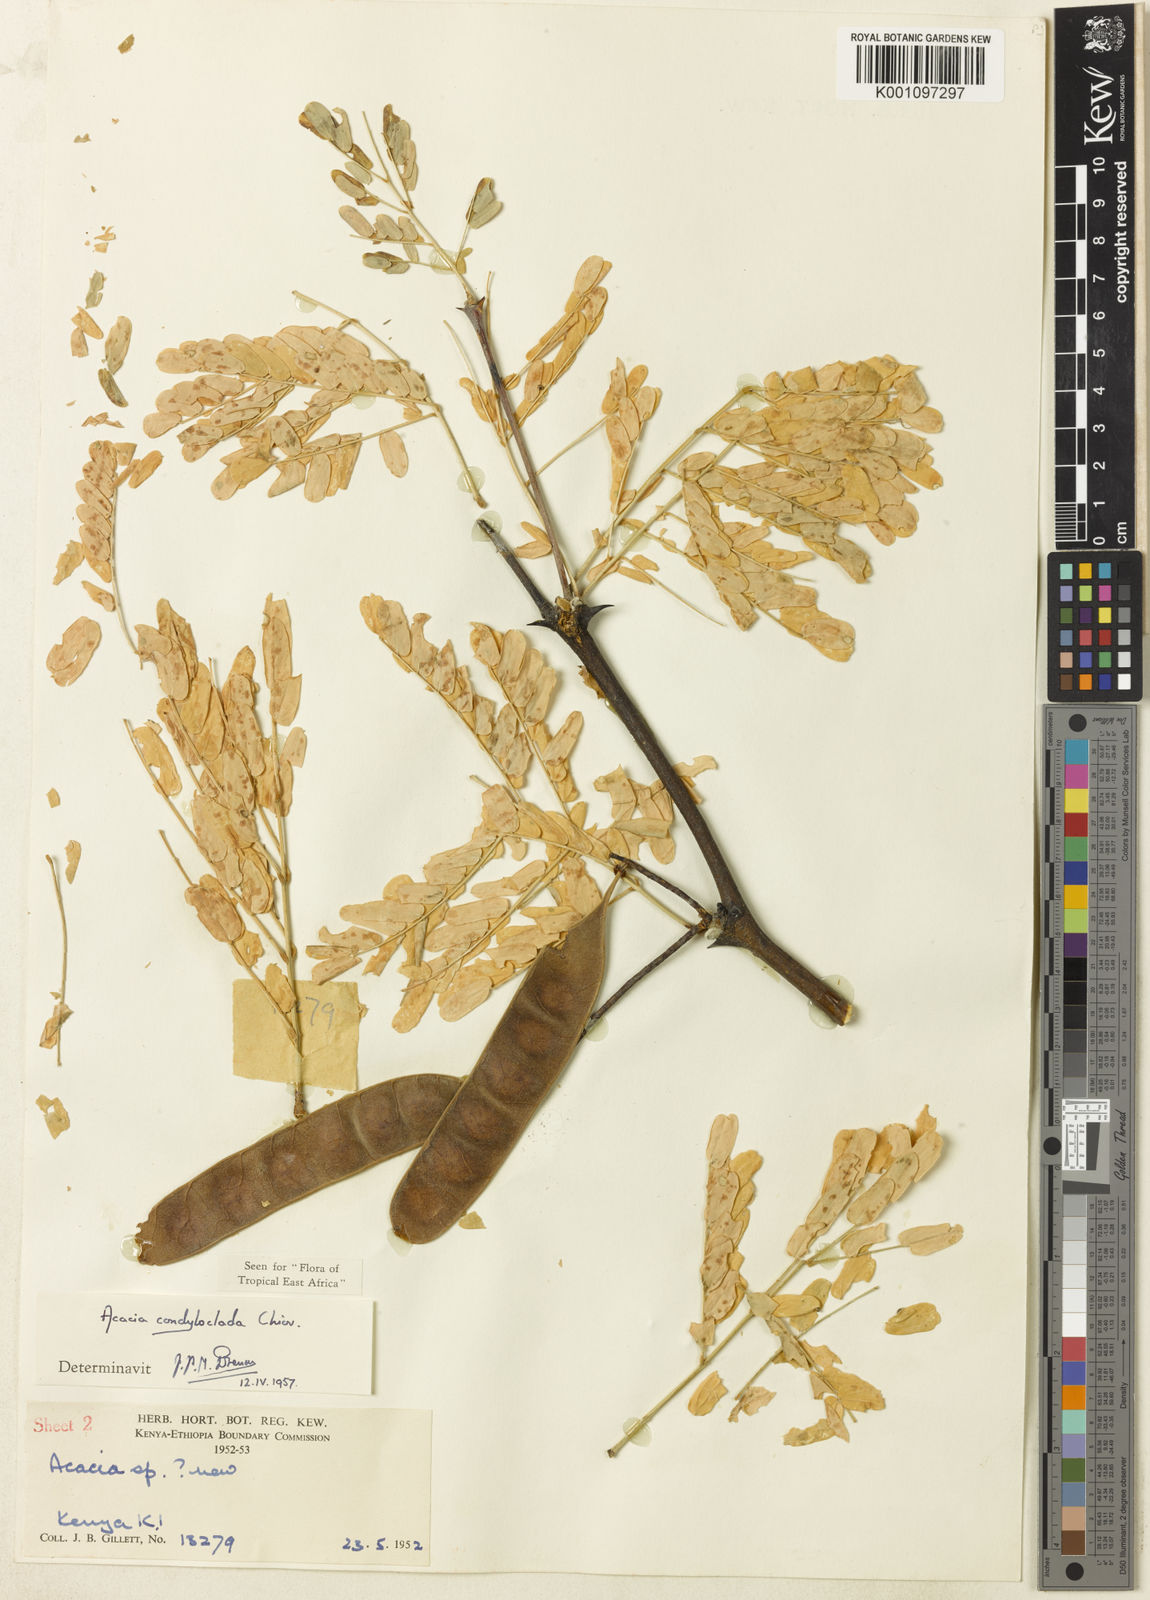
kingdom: Plantae
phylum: Tracheophyta
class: Magnoliopsida
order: Fabales
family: Fabaceae
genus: Senegalia
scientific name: Senegalia condyloclada
